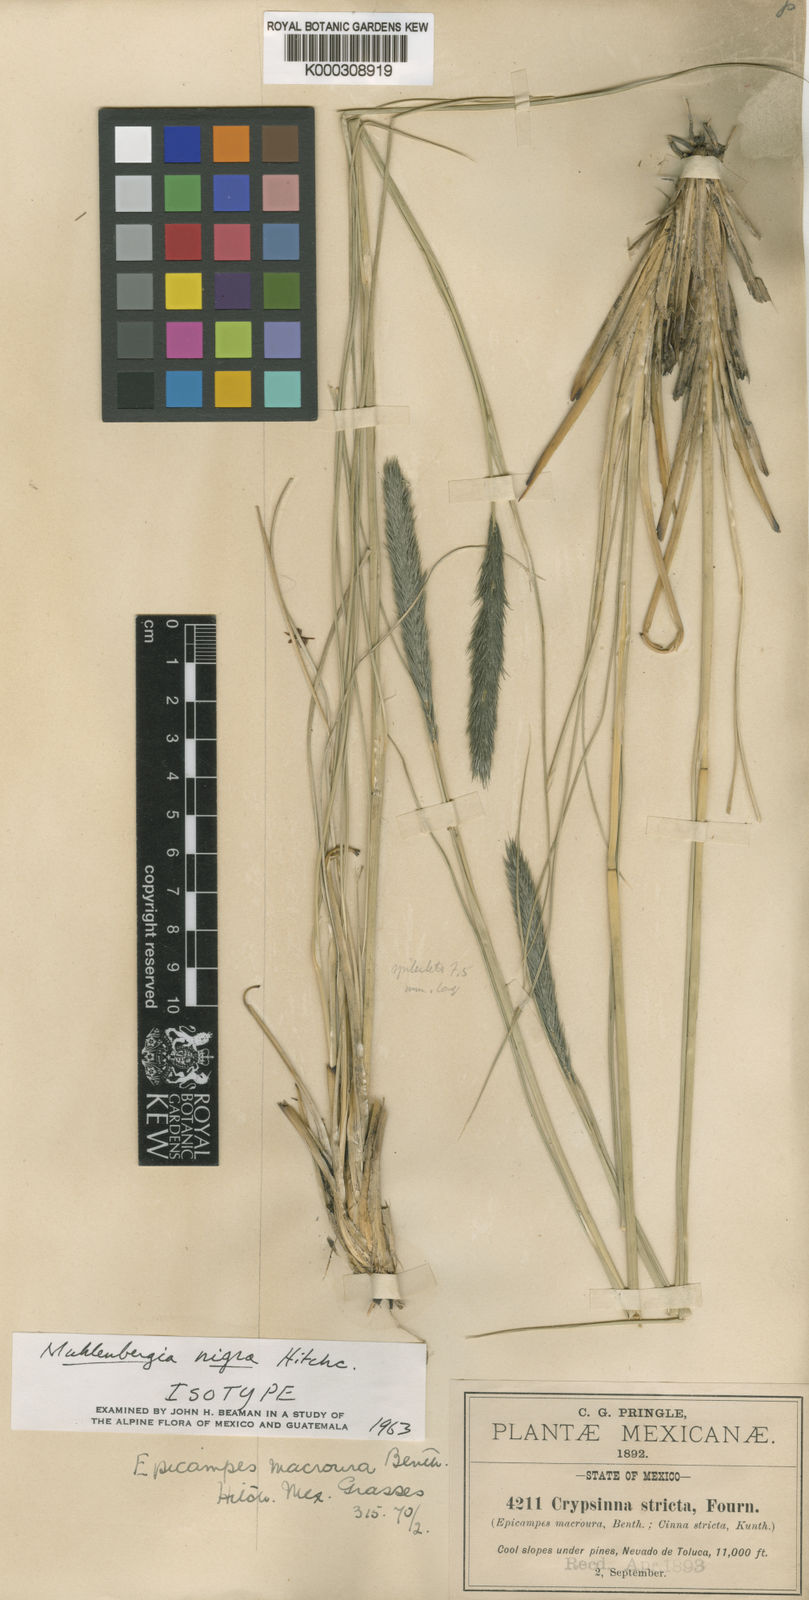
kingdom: Plantae
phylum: Tracheophyta
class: Liliopsida
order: Poales
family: Poaceae
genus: Muhlenbergia
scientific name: Muhlenbergia nigra
